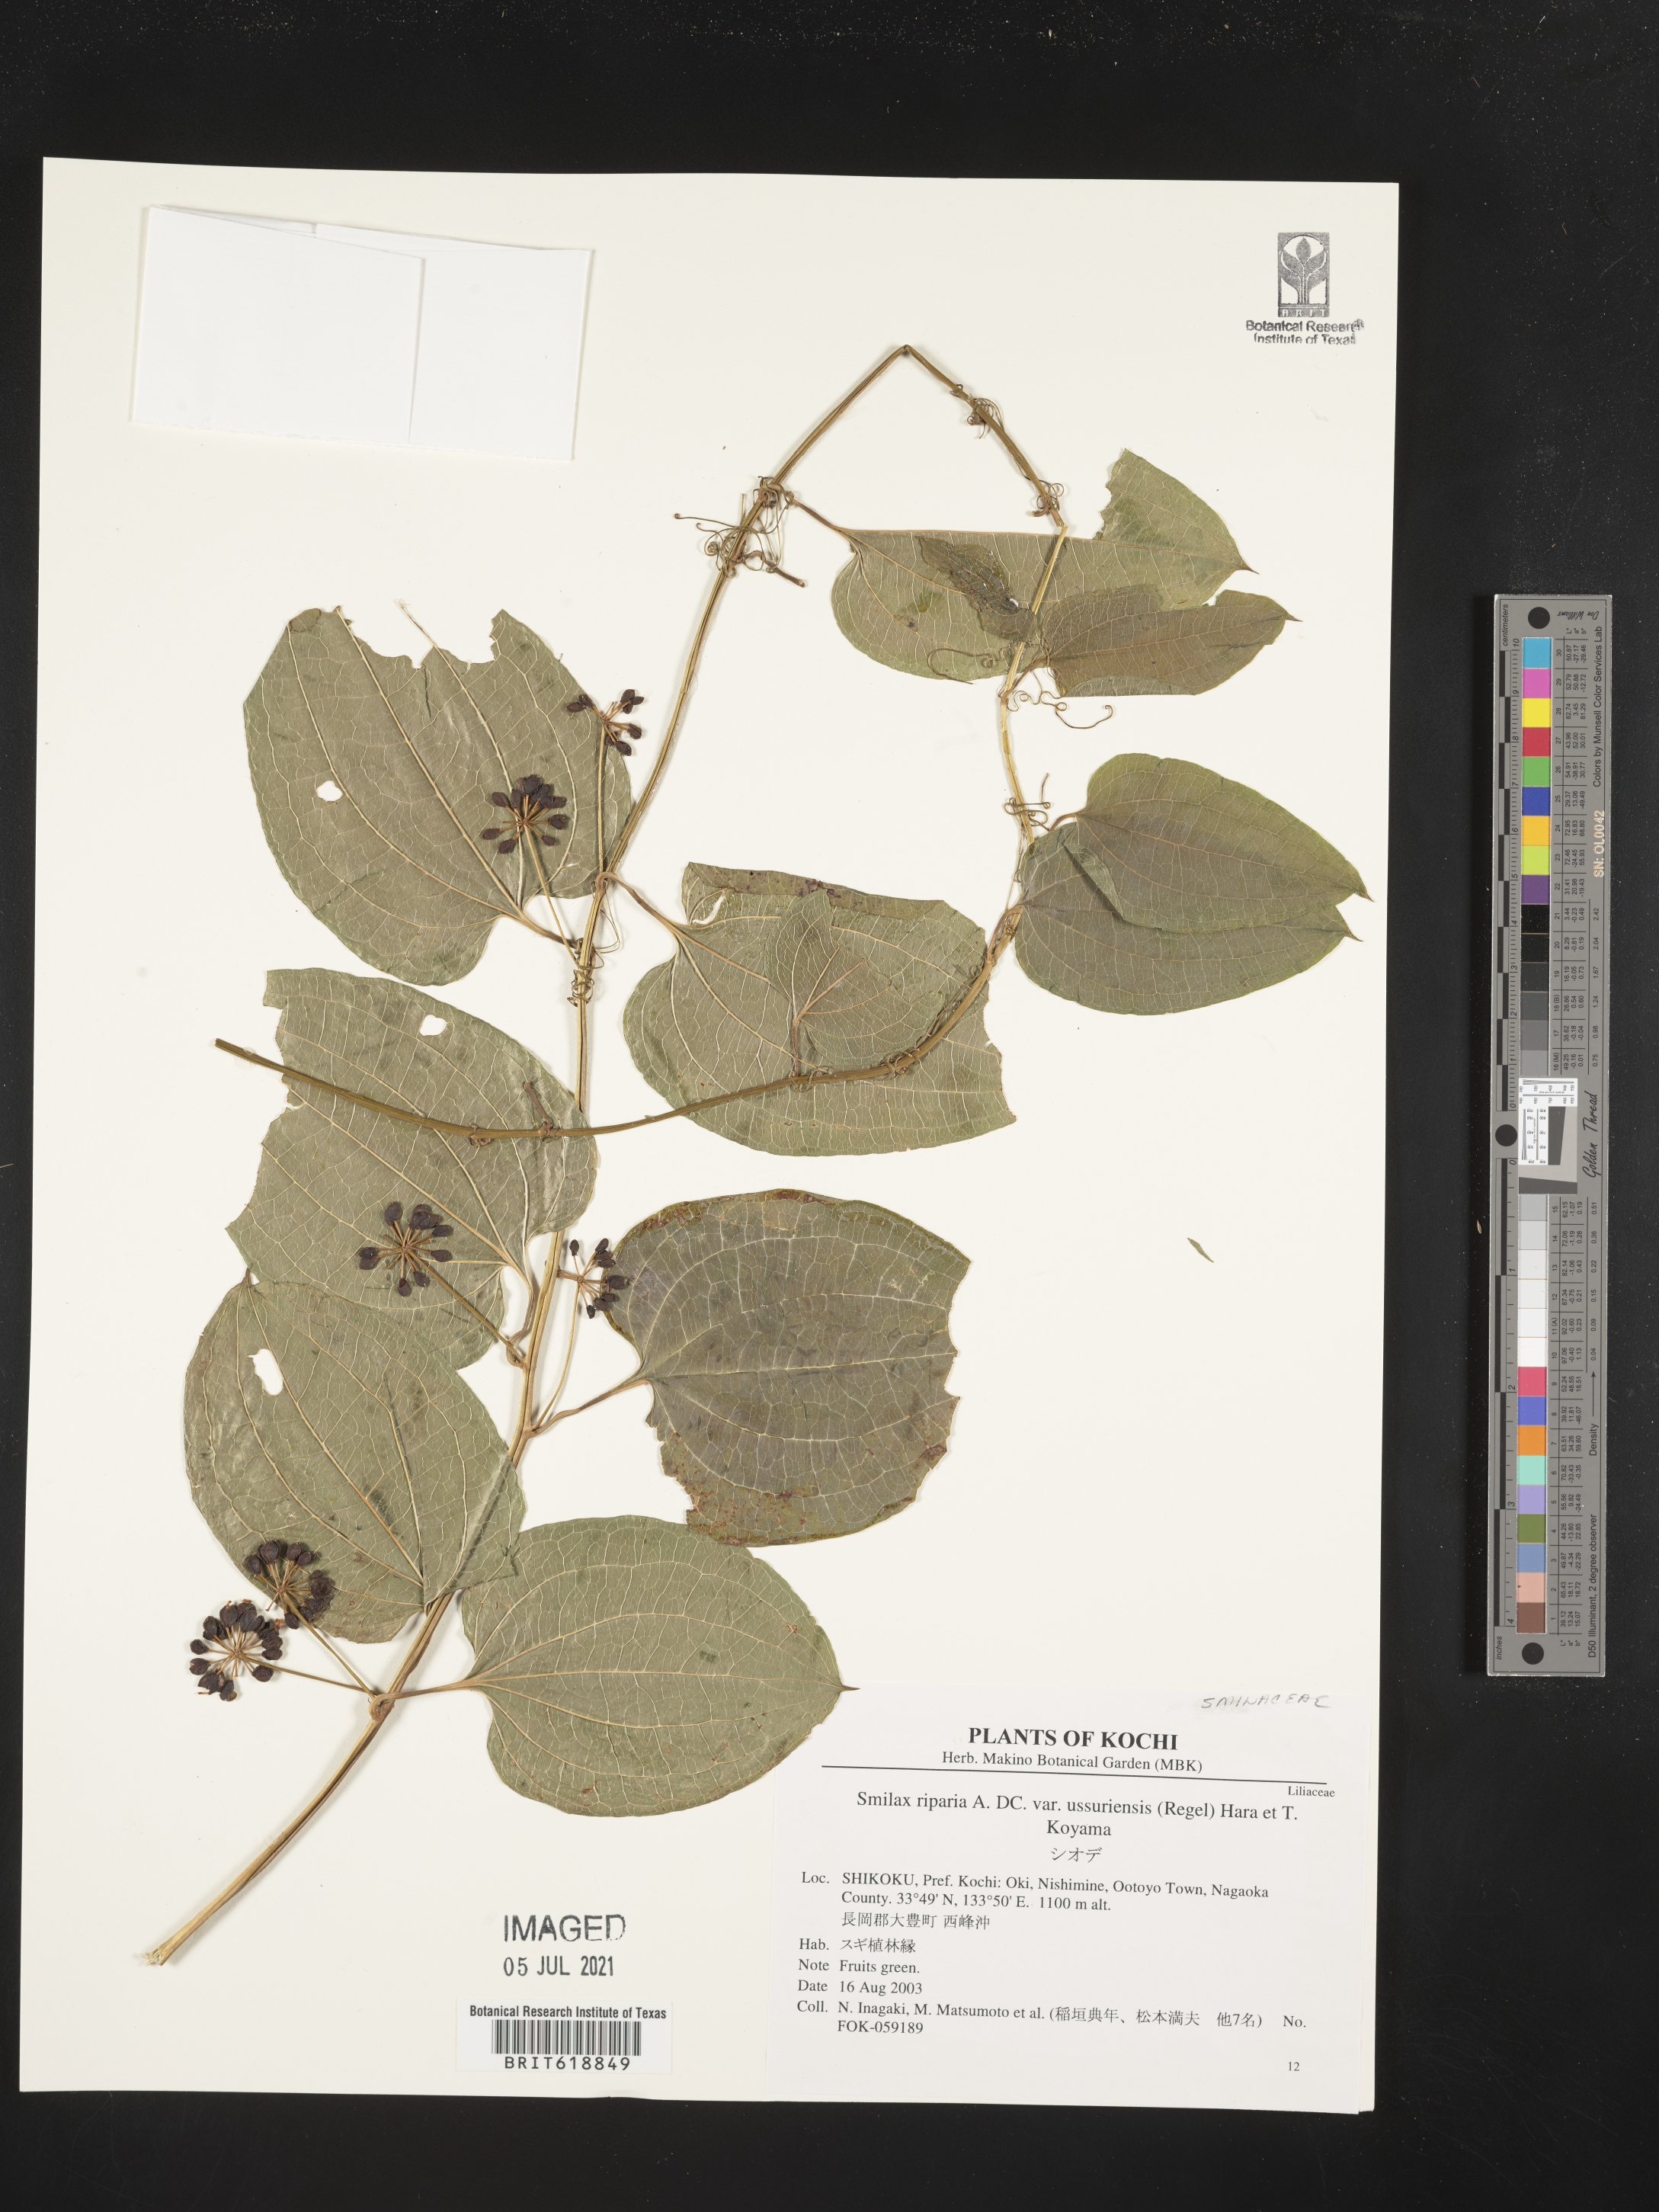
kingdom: Plantae
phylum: Tracheophyta
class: Liliopsida
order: Liliales
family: Smilacaceae
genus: Smilax
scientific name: Smilax riparia
